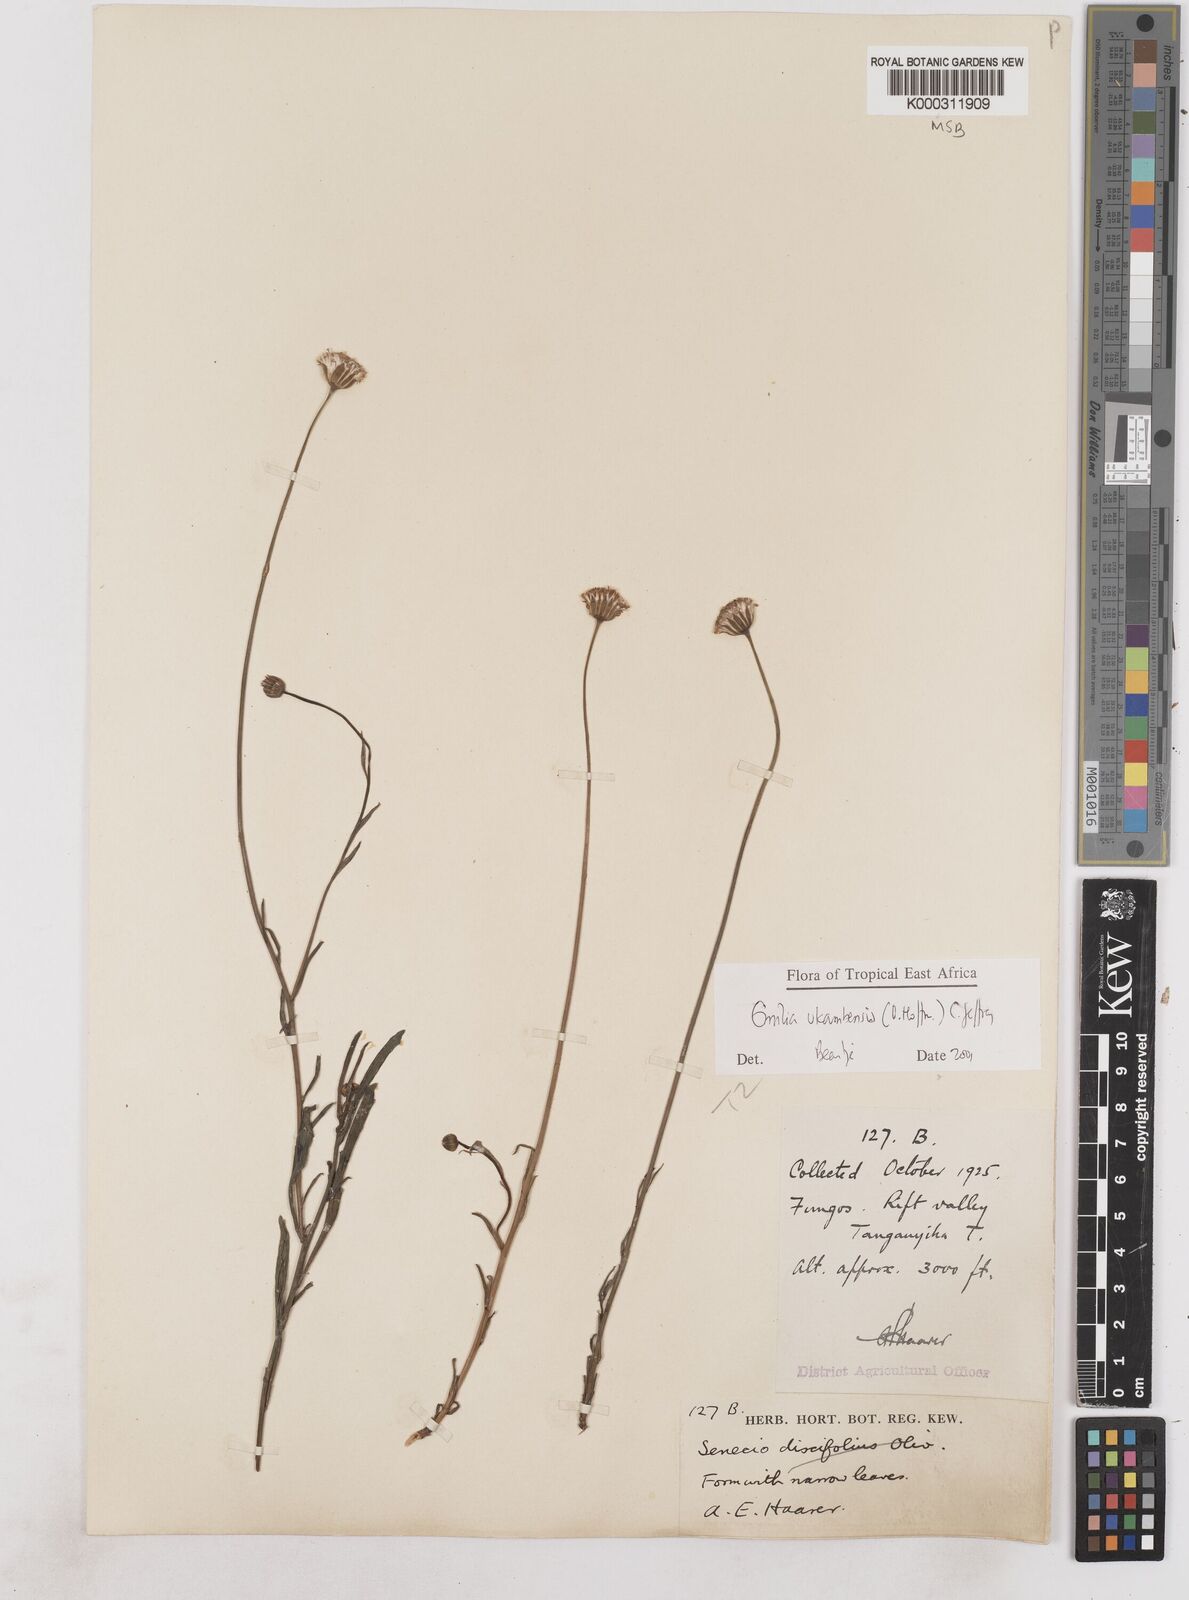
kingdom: Plantae
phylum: Tracheophyta
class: Magnoliopsida
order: Asterales
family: Asteraceae
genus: Emilia
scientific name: Emilia ukambensis
